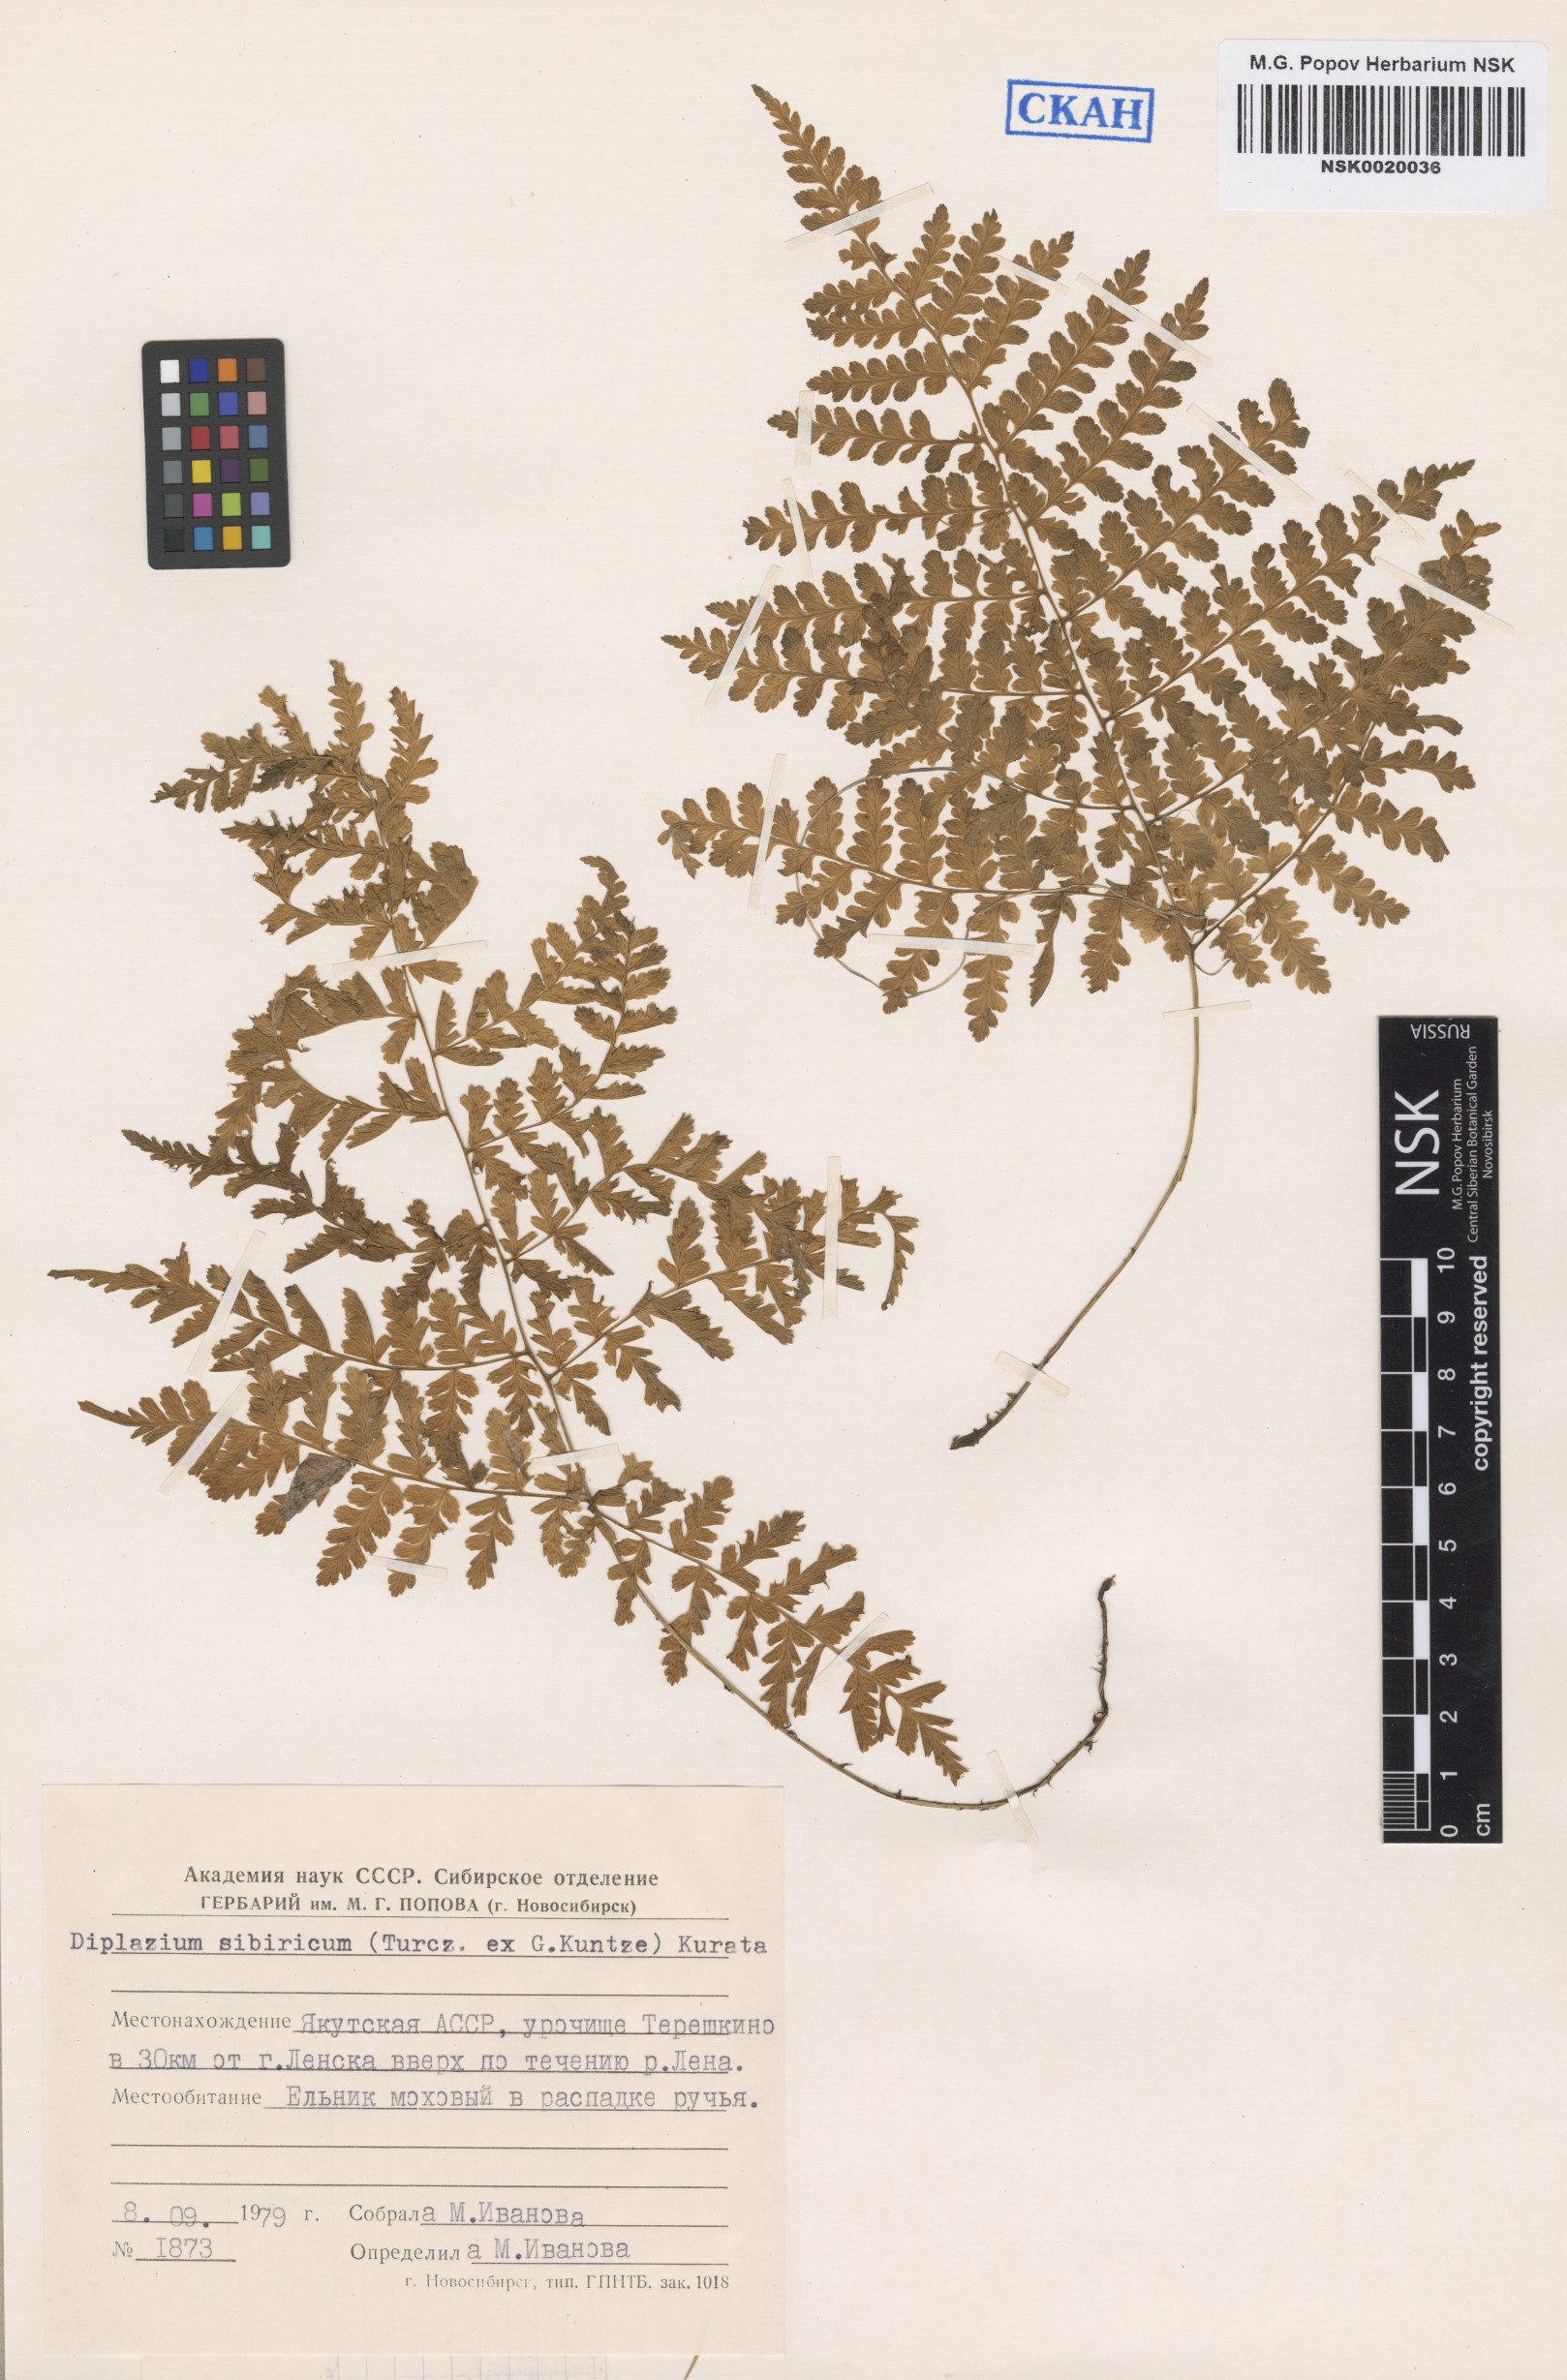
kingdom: Plantae
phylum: Tracheophyta
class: Polypodiopsida
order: Polypodiales
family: Athyriaceae
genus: Diplazium
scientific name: Diplazium sibiricum
